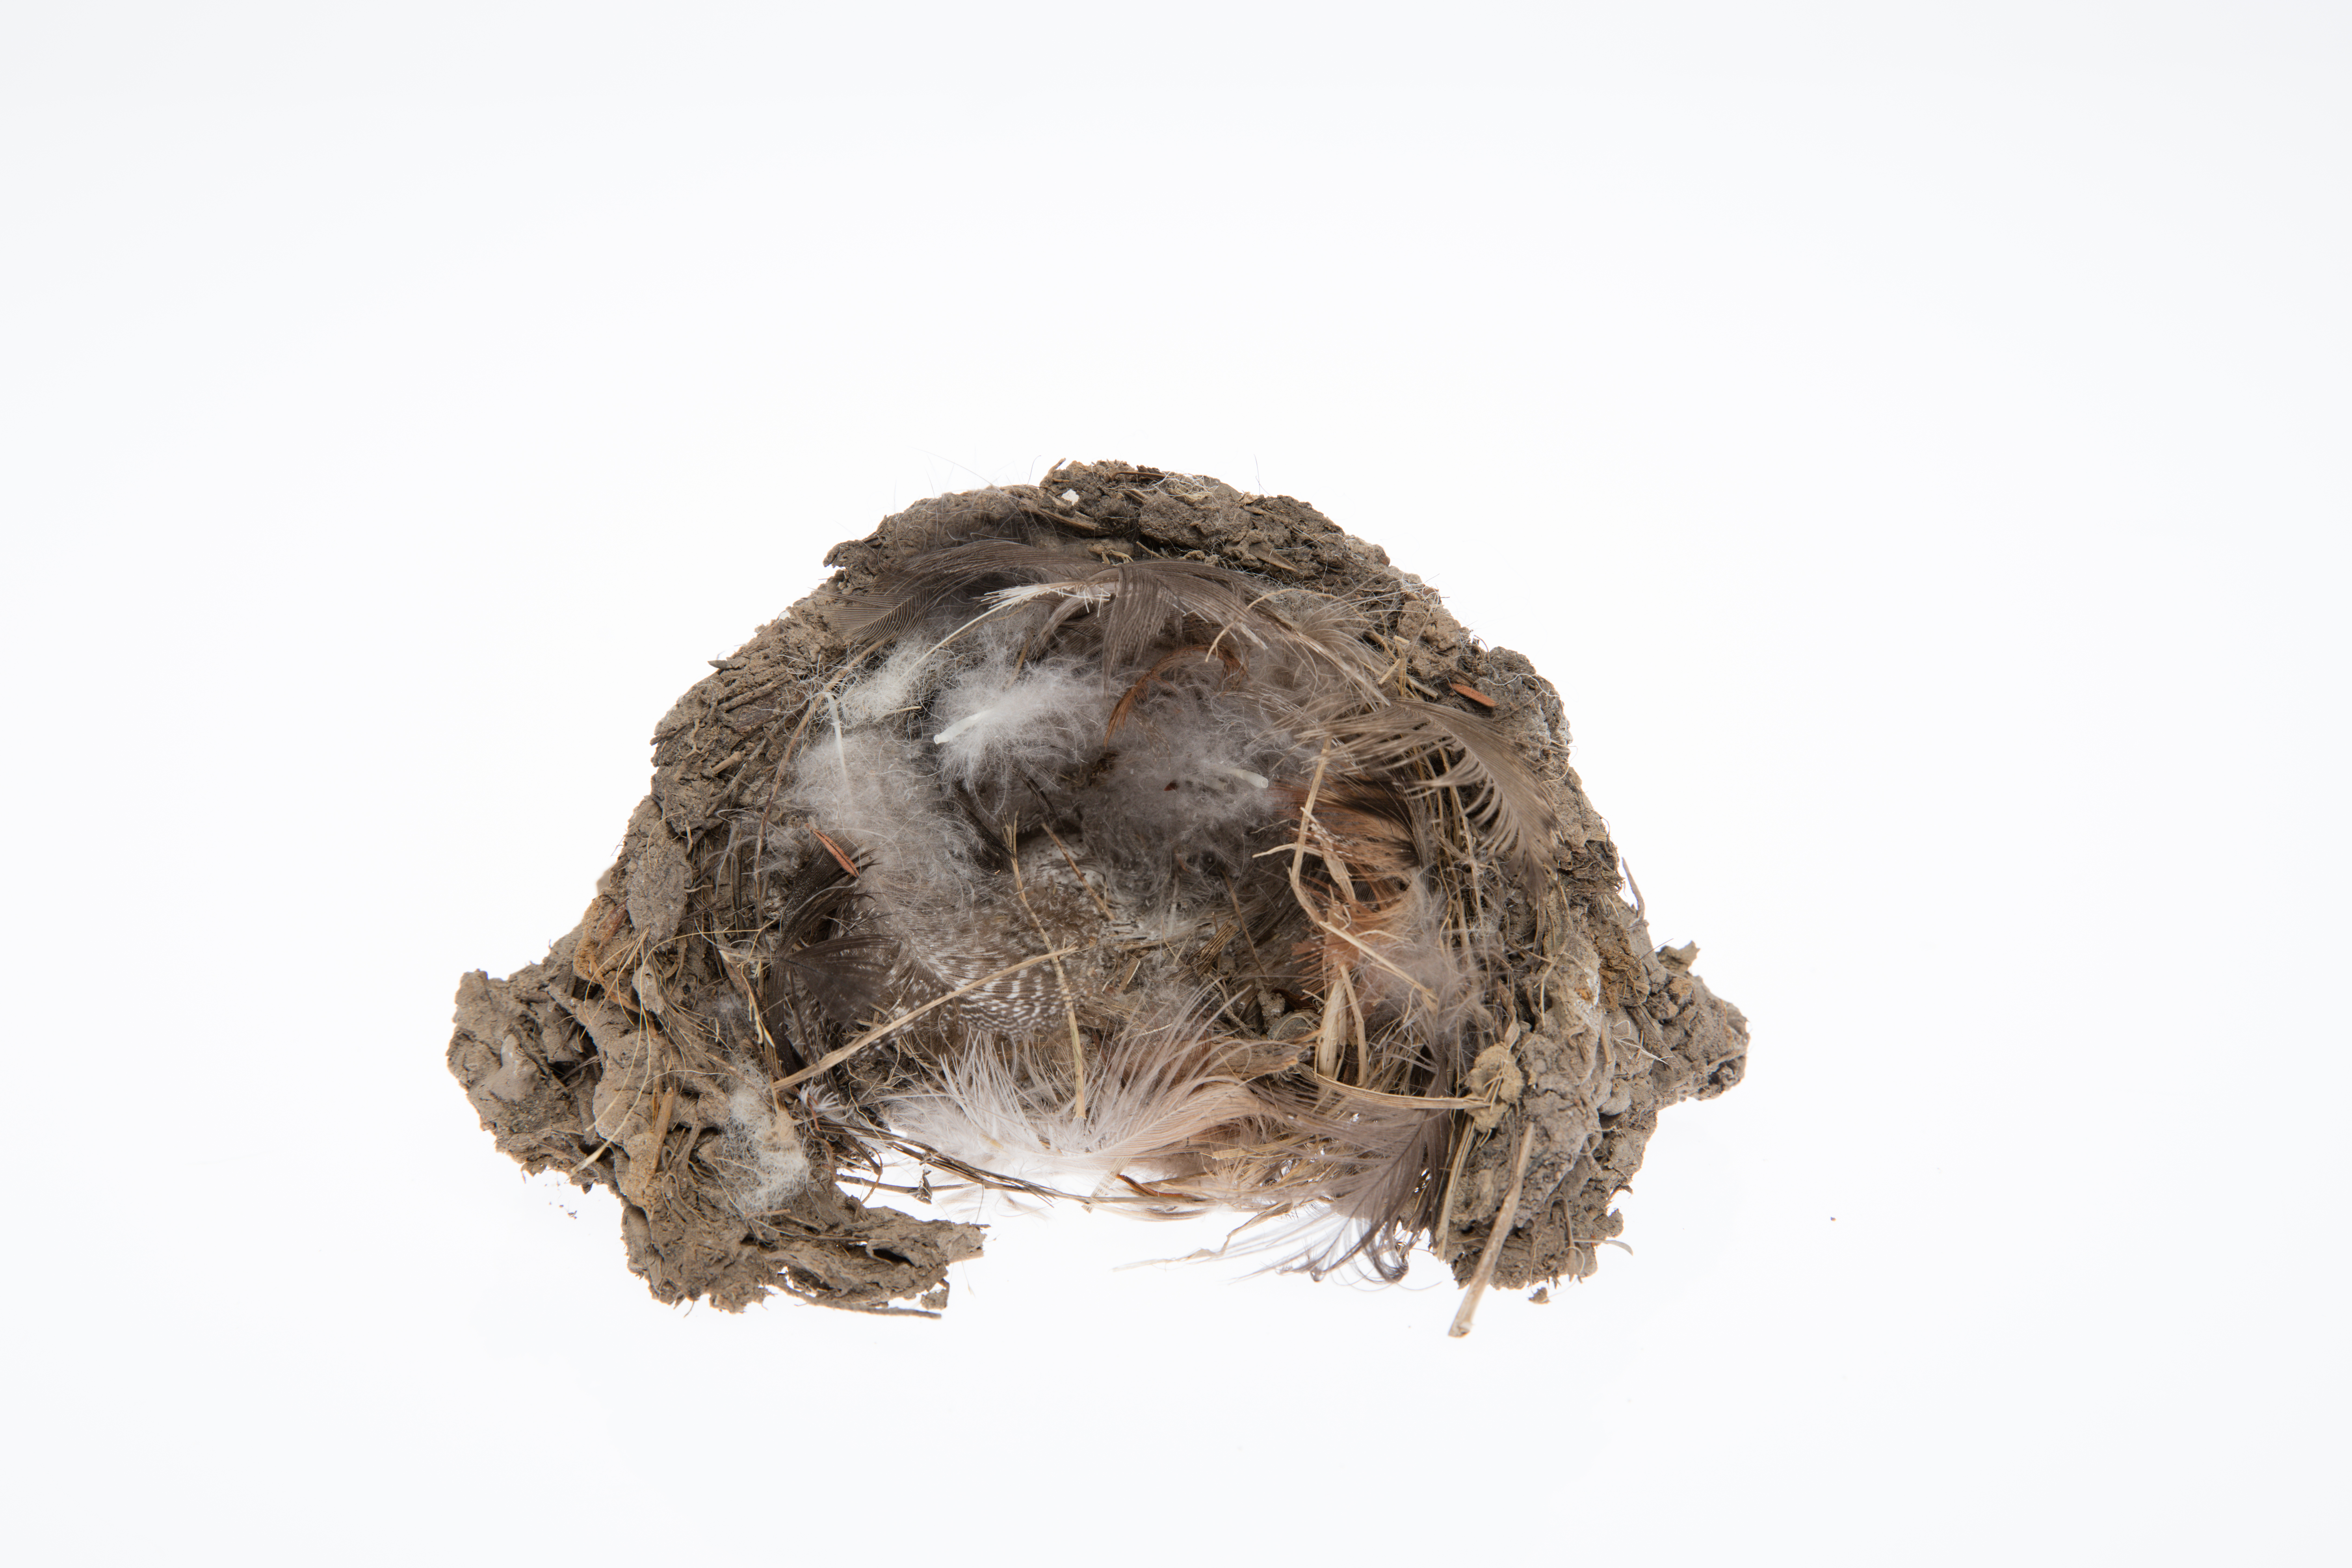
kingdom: Animalia
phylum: Chordata
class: Aves
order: Passeriformes
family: Hirundinidae
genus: Hirundo
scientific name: Hirundo neoxena
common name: Welcome swallow
